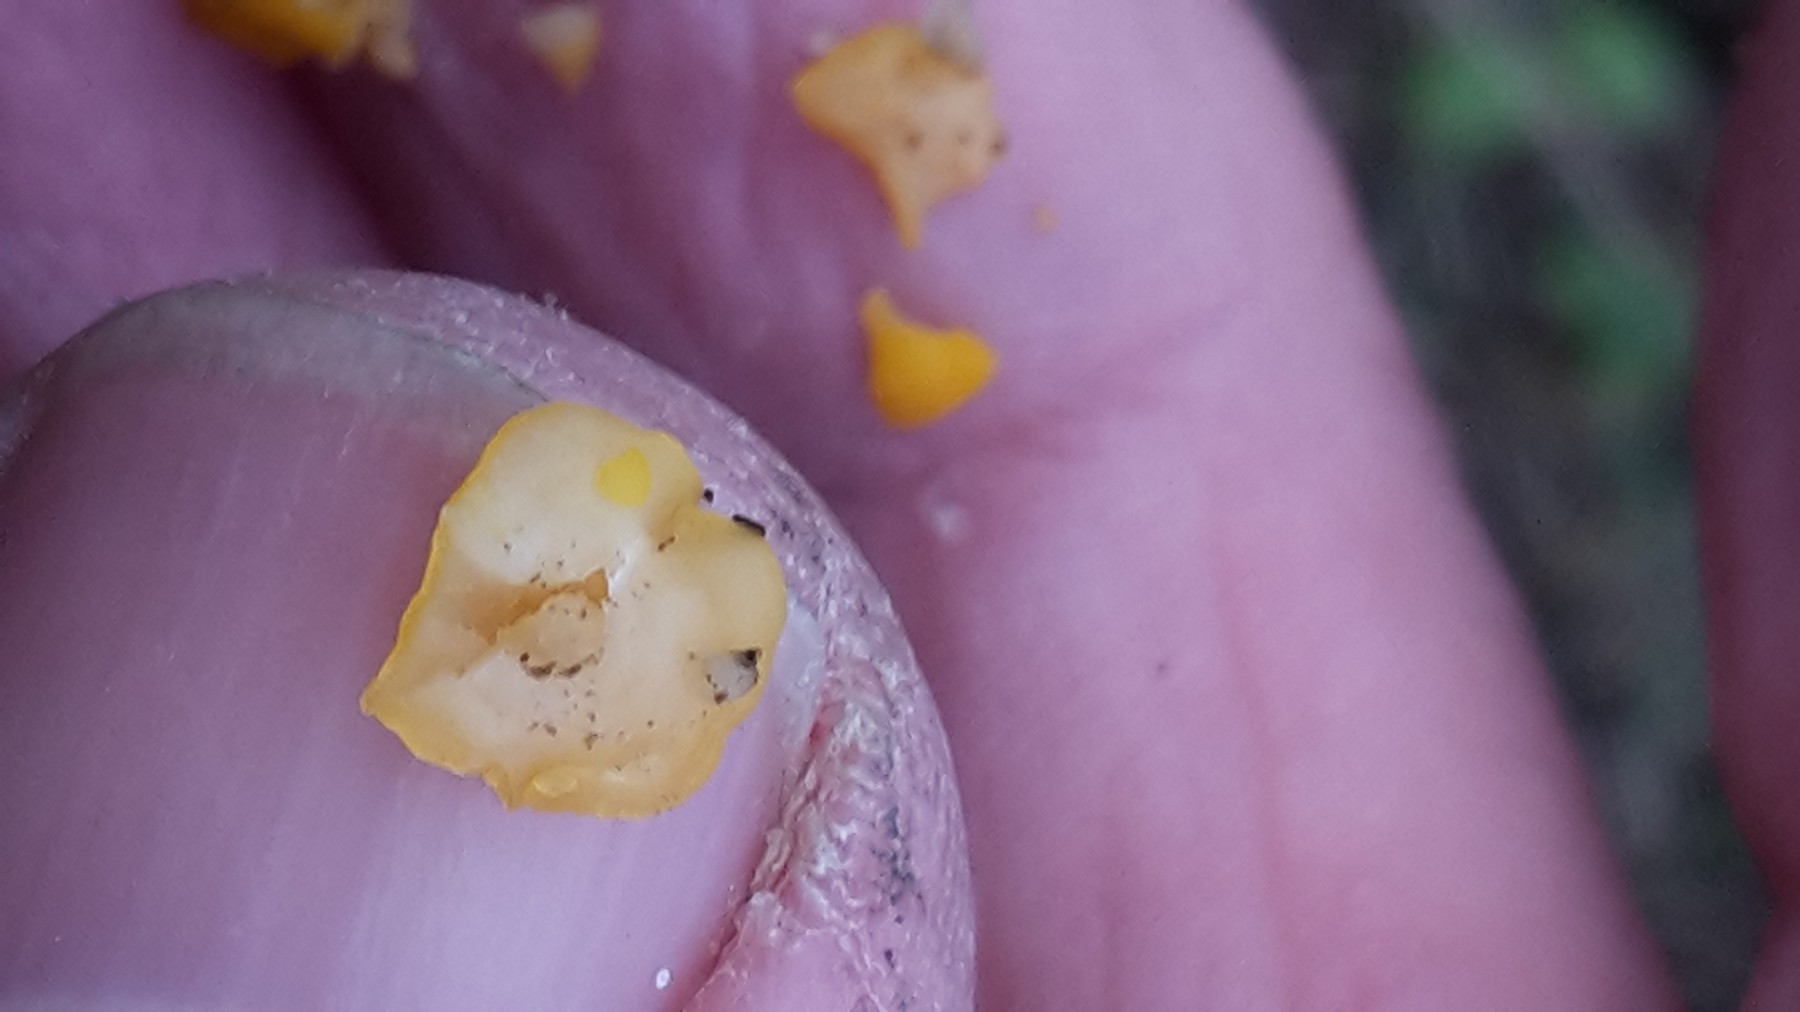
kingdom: Fungi
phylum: Ascomycota
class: Leotiomycetes
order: Helotiales
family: Pezizellaceae
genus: Calycina
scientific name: Calycina citrina
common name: almindelig gulskive
